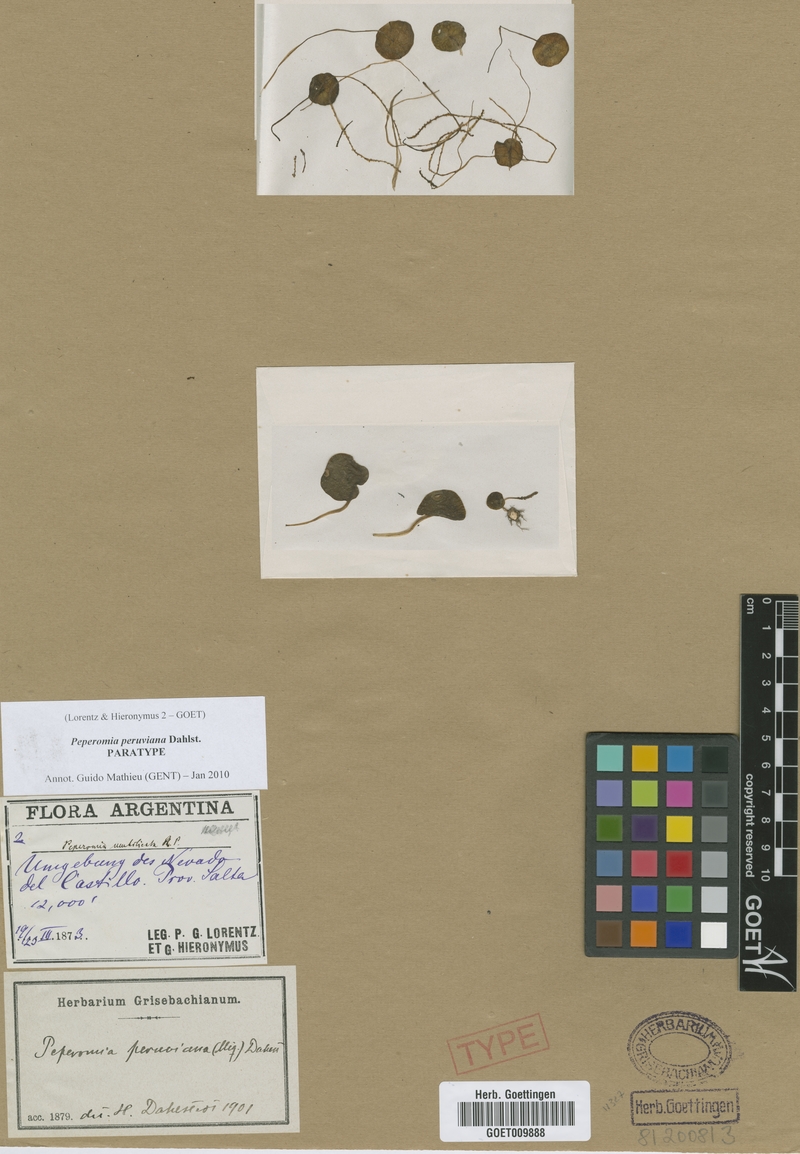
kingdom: Plantae
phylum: Tracheophyta
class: Magnoliopsida
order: Piperales
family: Piperaceae
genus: Peperomia
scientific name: Peperomia peruviana
